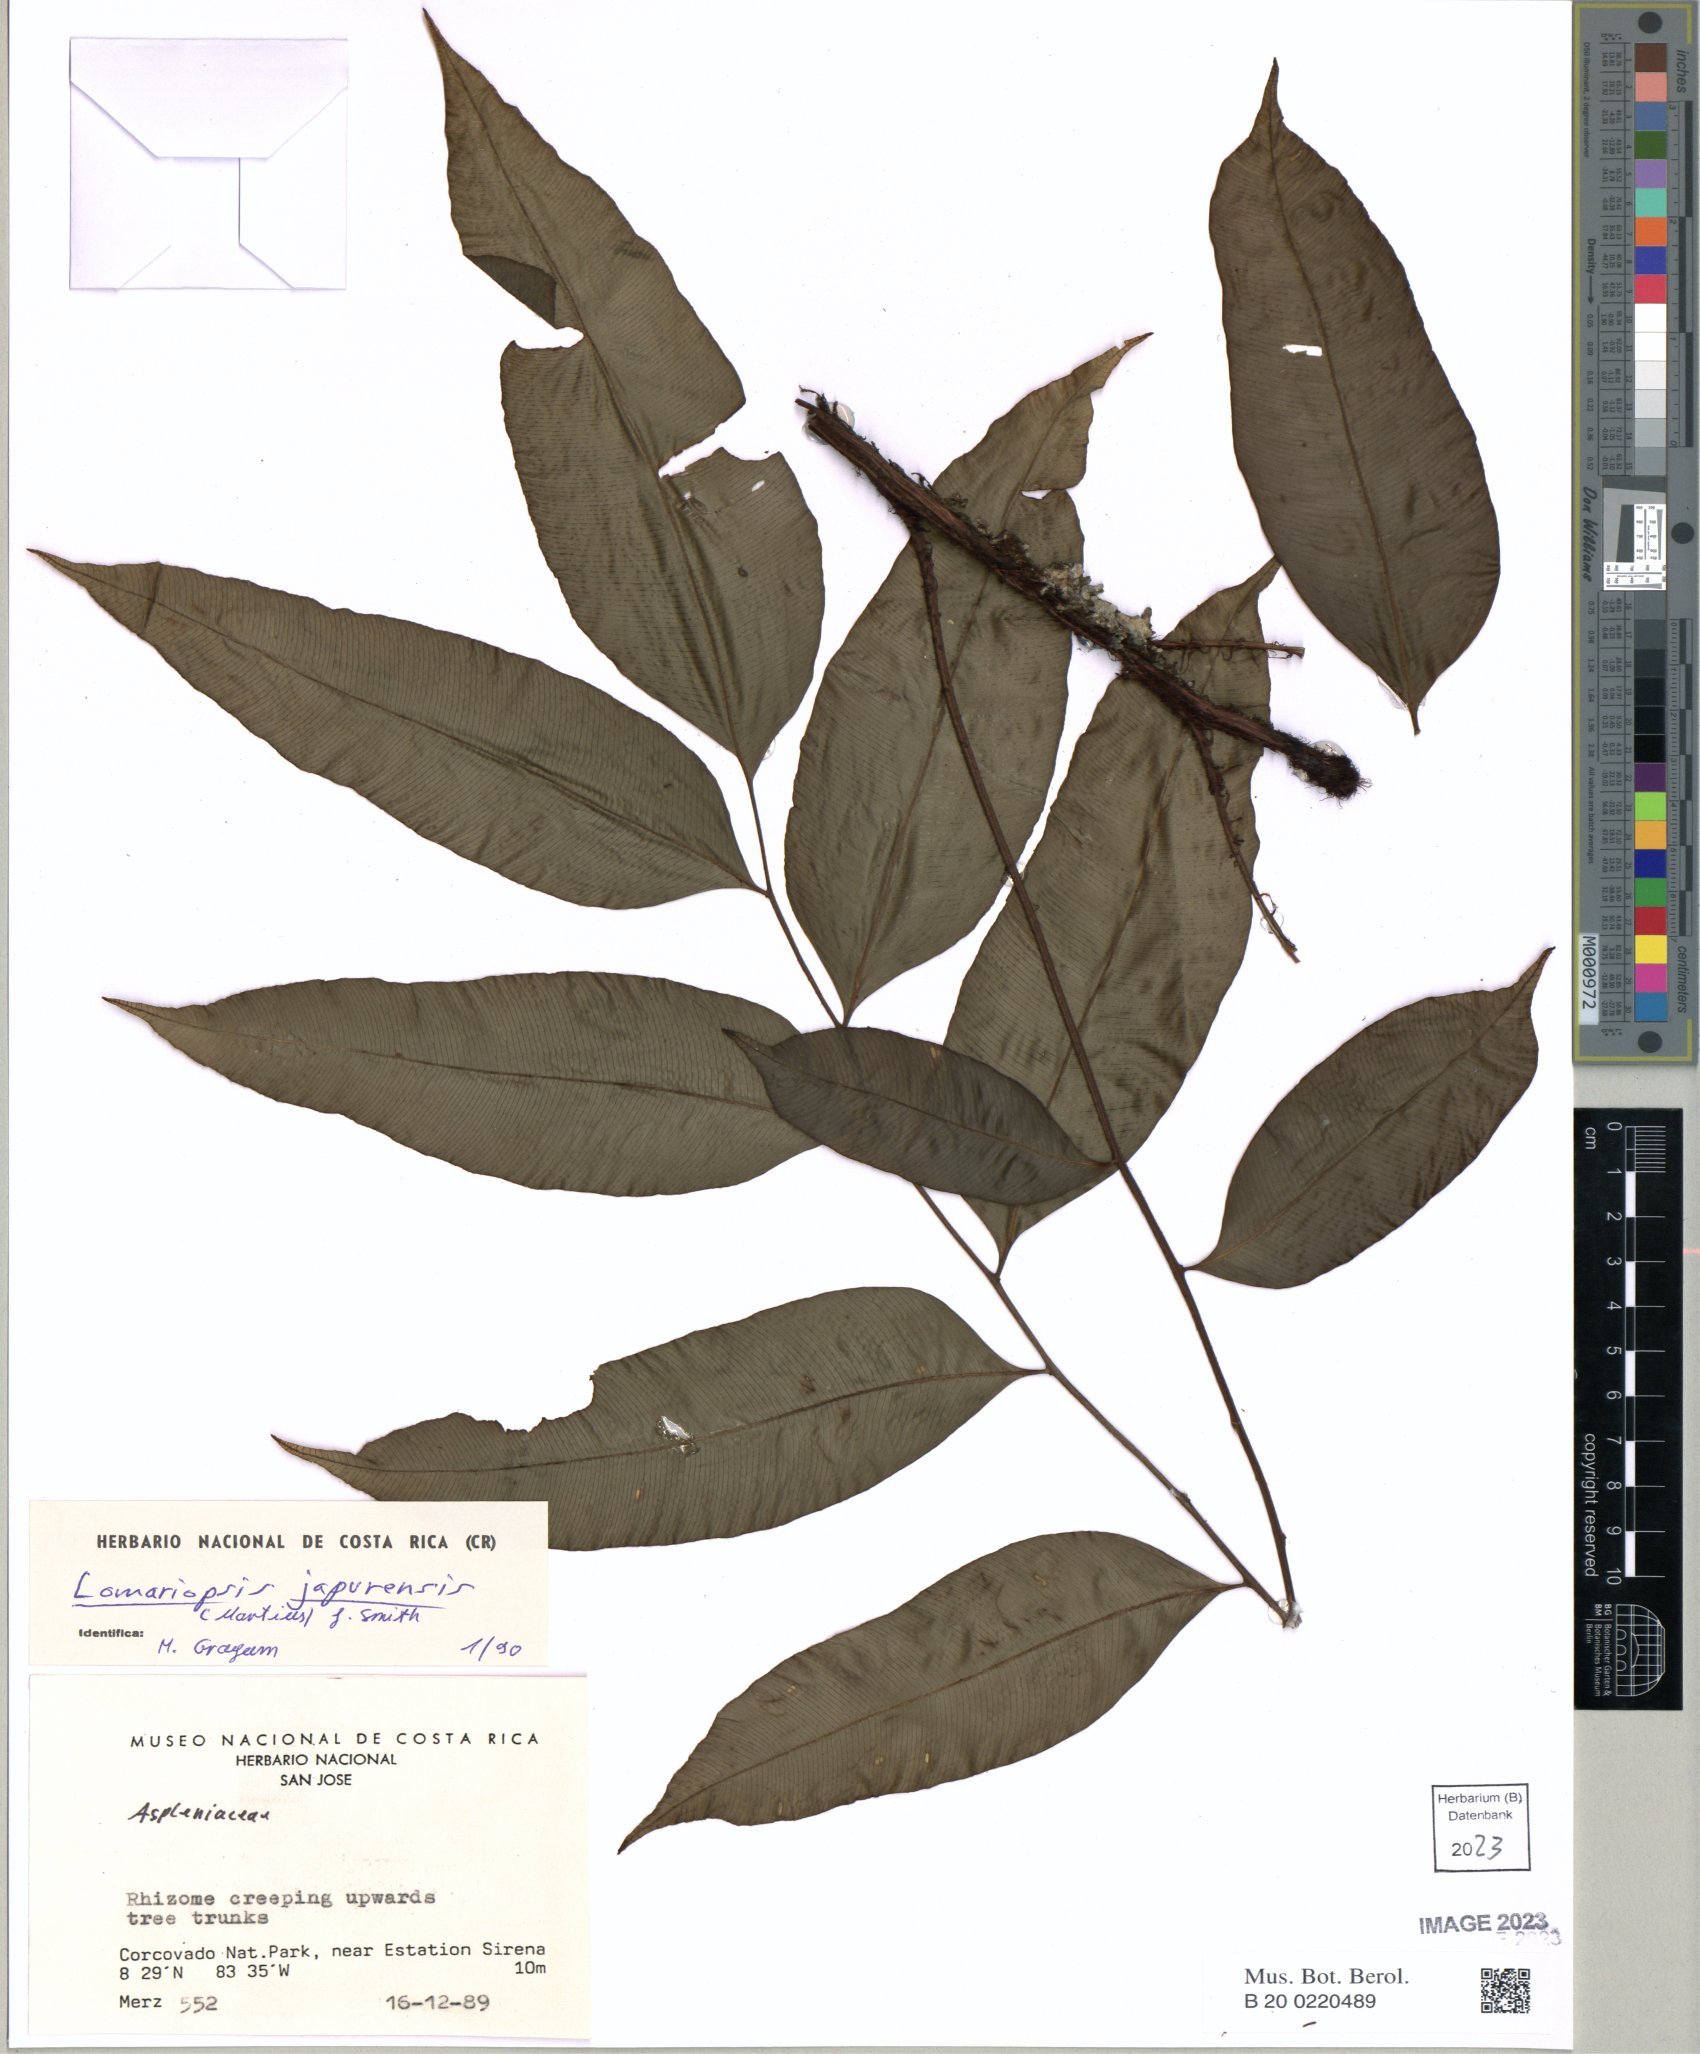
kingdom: Plantae
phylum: Tracheophyta
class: Polypodiopsida
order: Polypodiales
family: Lomariopsidaceae
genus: Lomariopsis
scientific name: Lomariopsis japurensis
